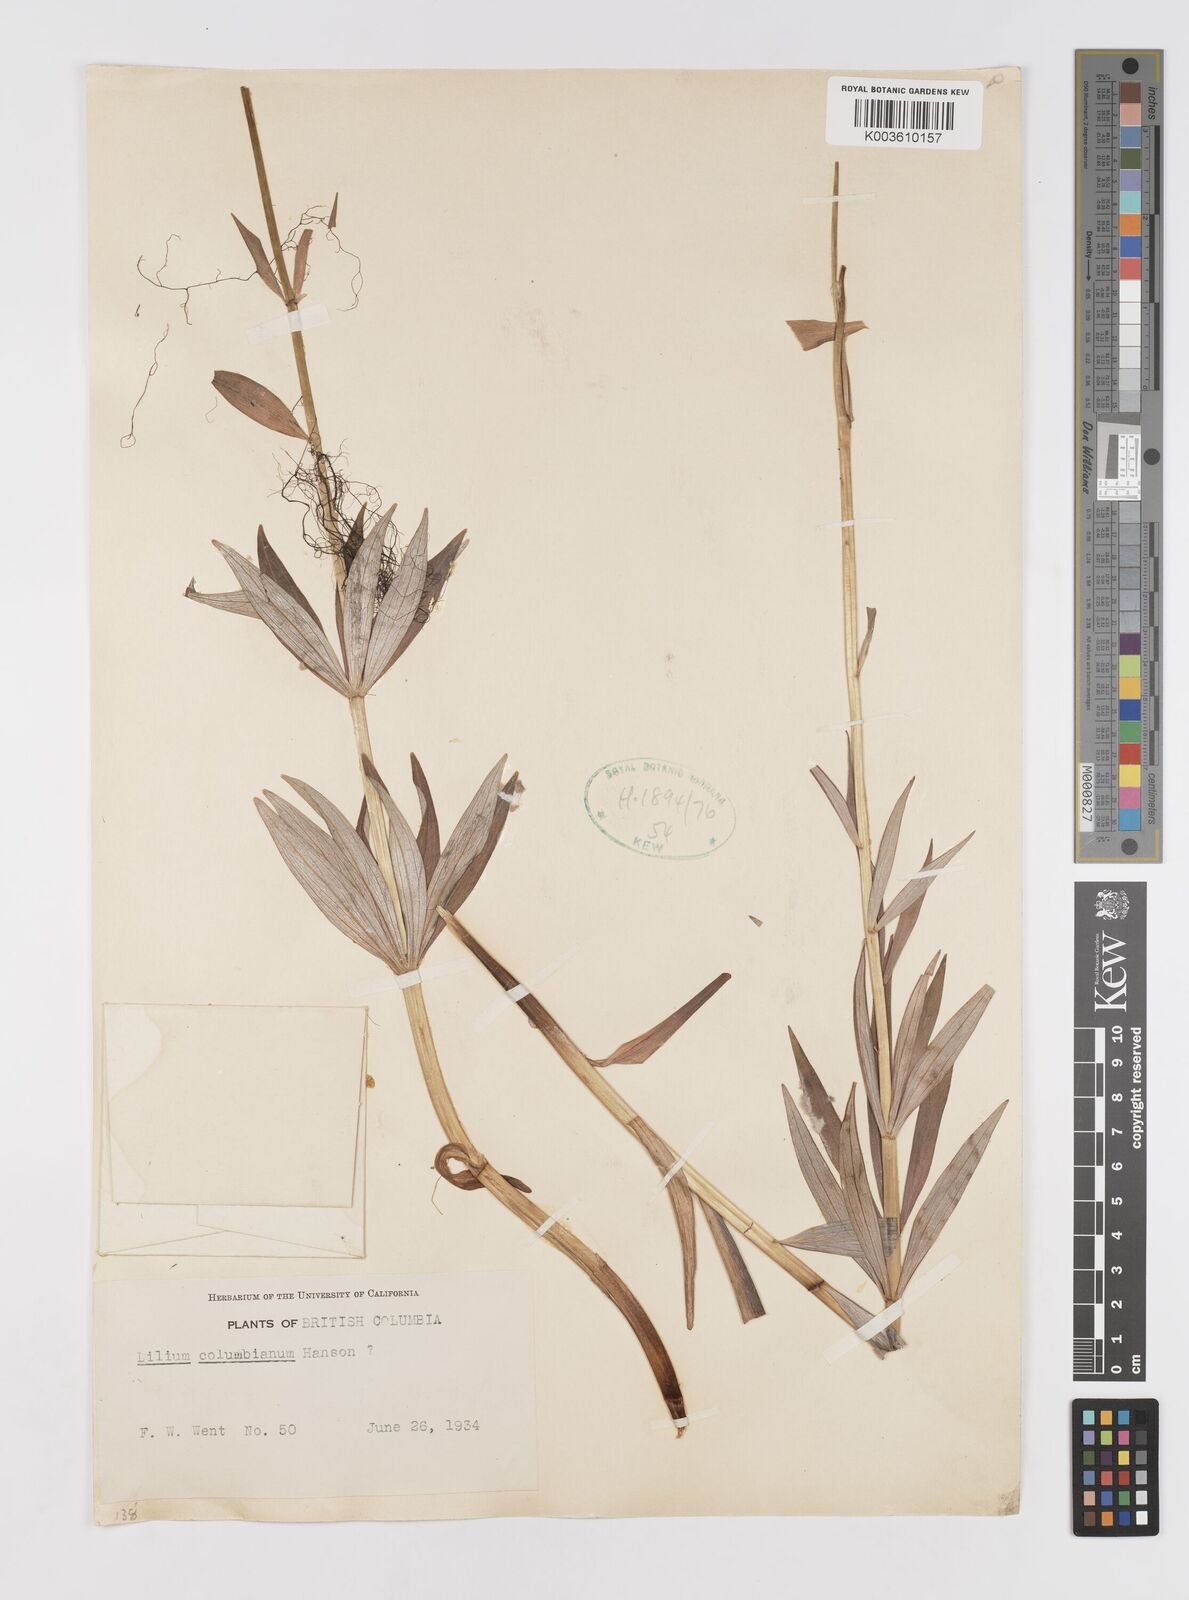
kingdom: Plantae
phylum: Tracheophyta
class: Liliopsida
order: Liliales
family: Liliaceae
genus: Lilium
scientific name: Lilium
